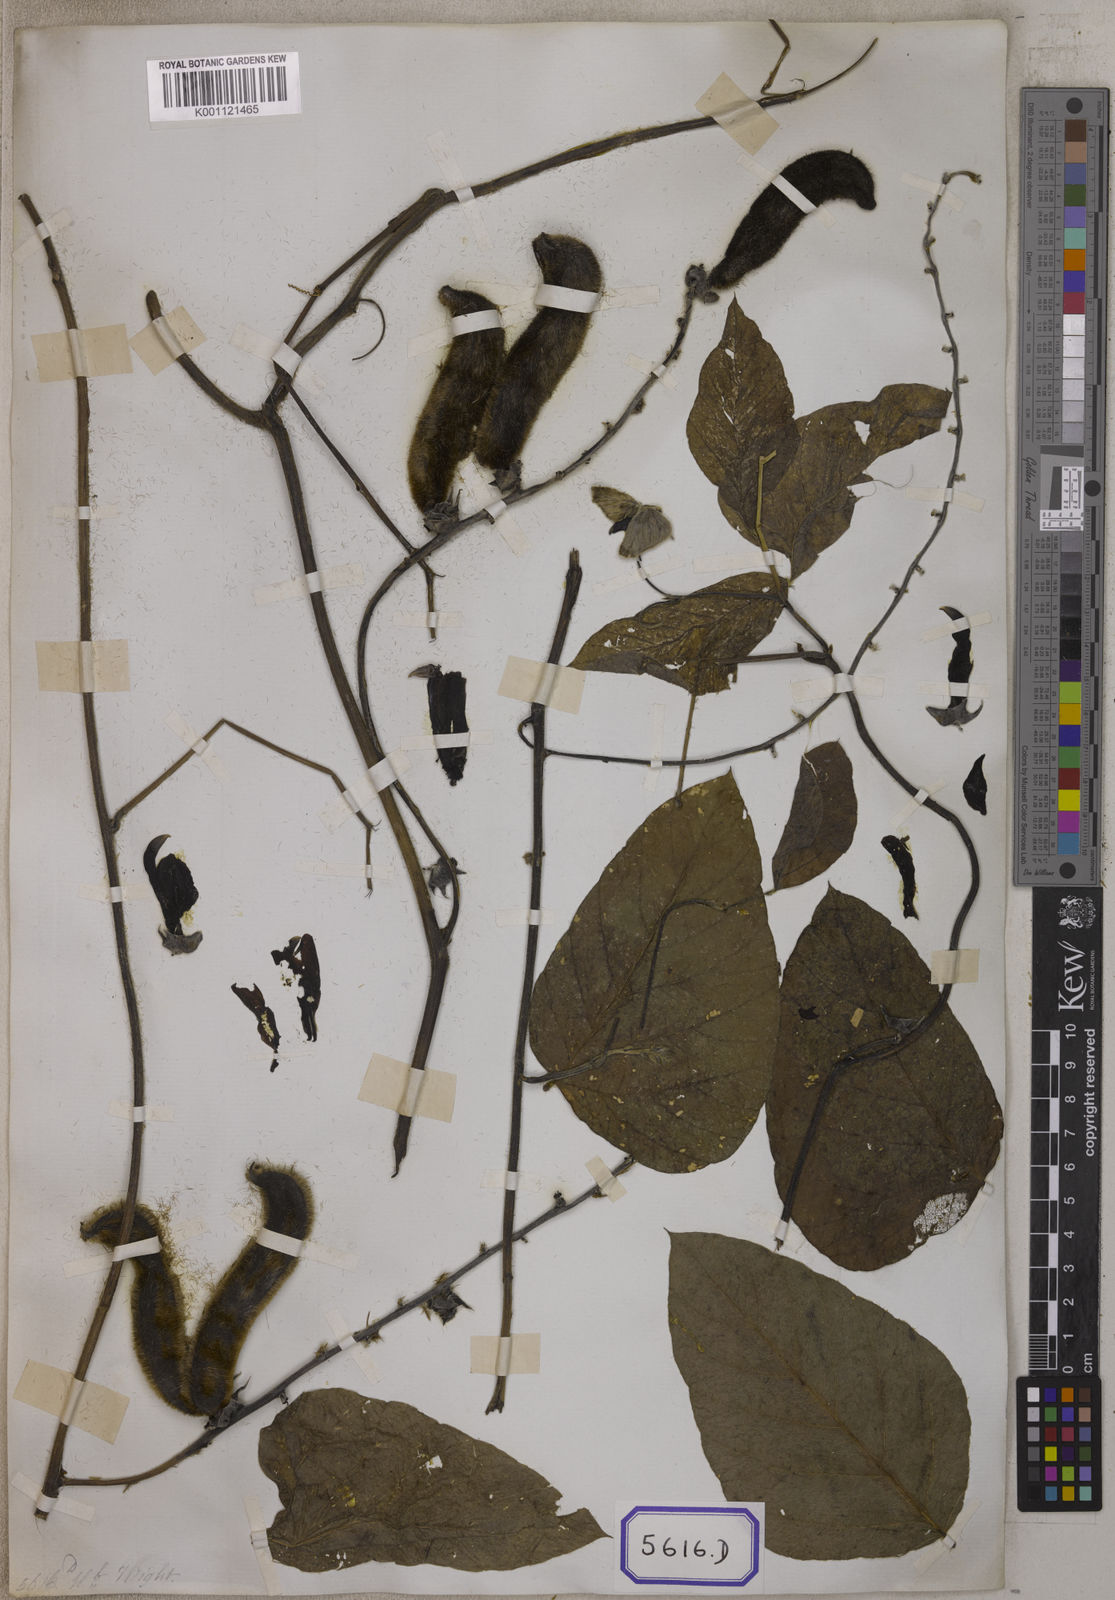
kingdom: Plantae
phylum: Tracheophyta
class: Magnoliopsida
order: Fabales
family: Fabaceae
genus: Mucuna
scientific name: Mucuna pruriens
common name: Cow-itch
